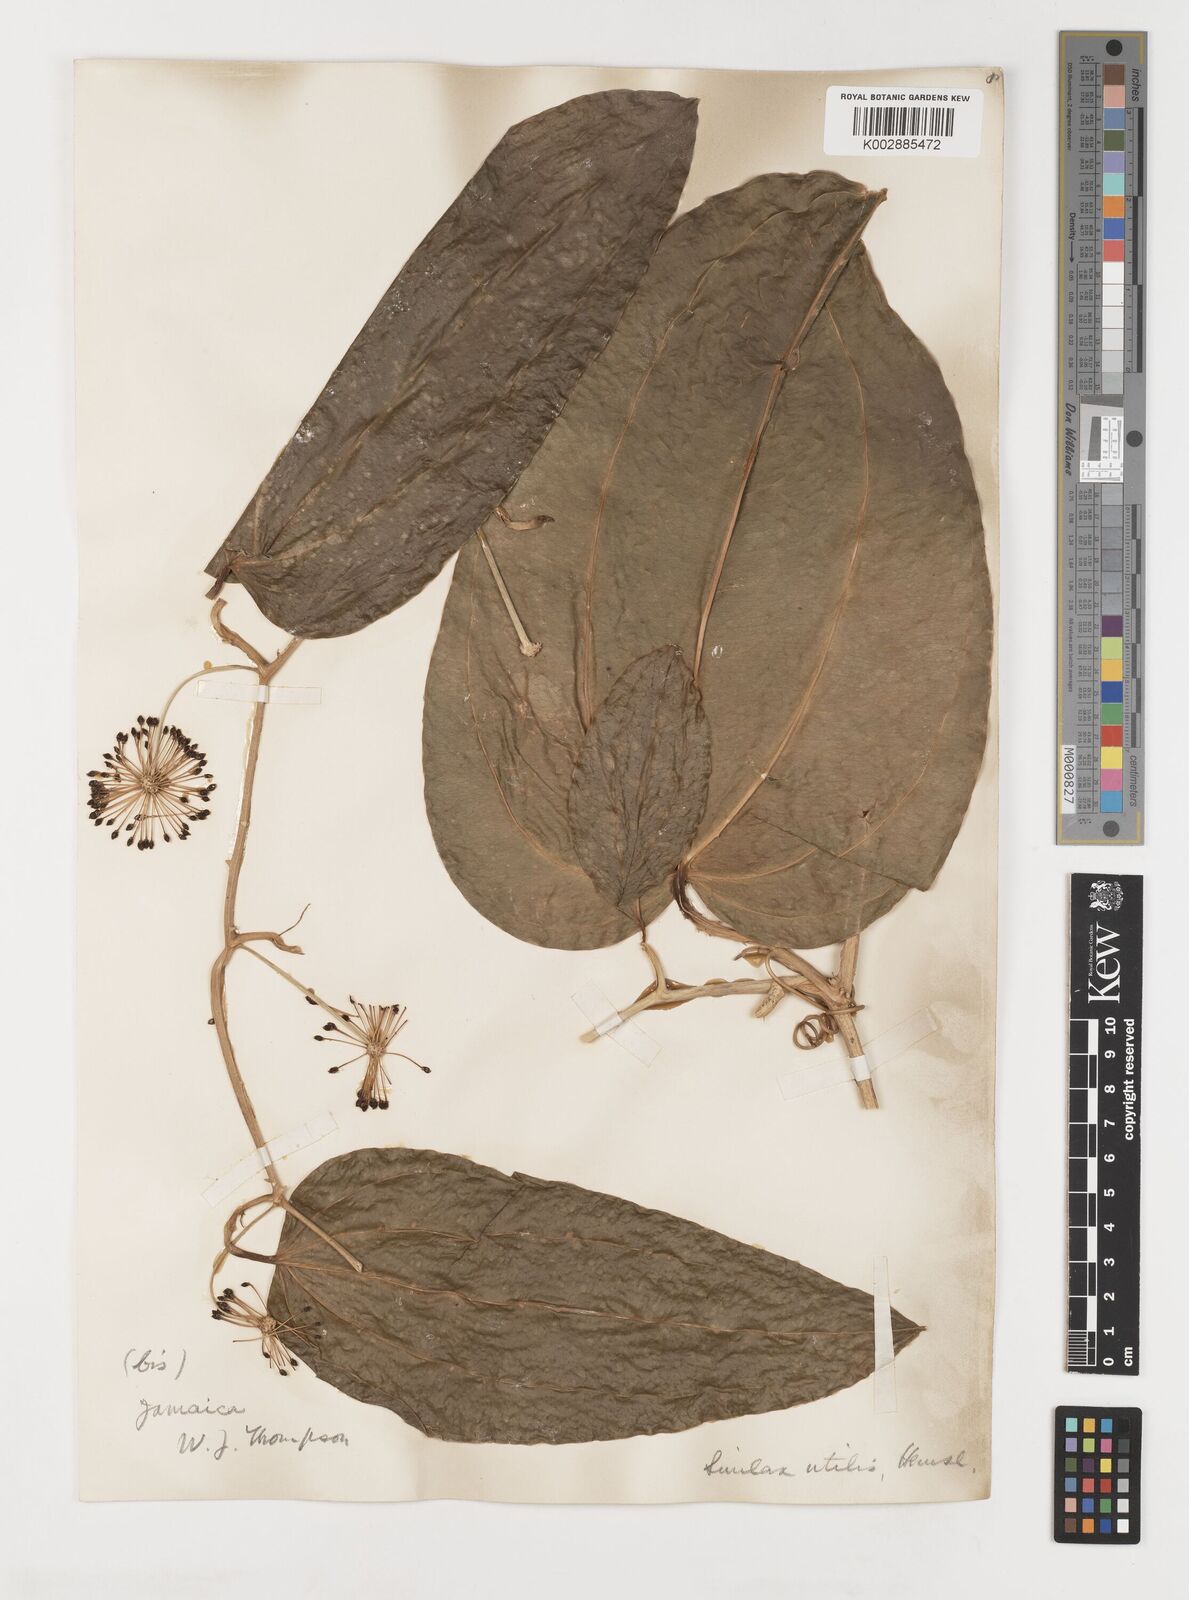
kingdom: Plantae
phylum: Tracheophyta
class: Liliopsida
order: Liliales
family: Smilacaceae
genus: Smilax
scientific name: Smilax ornata
